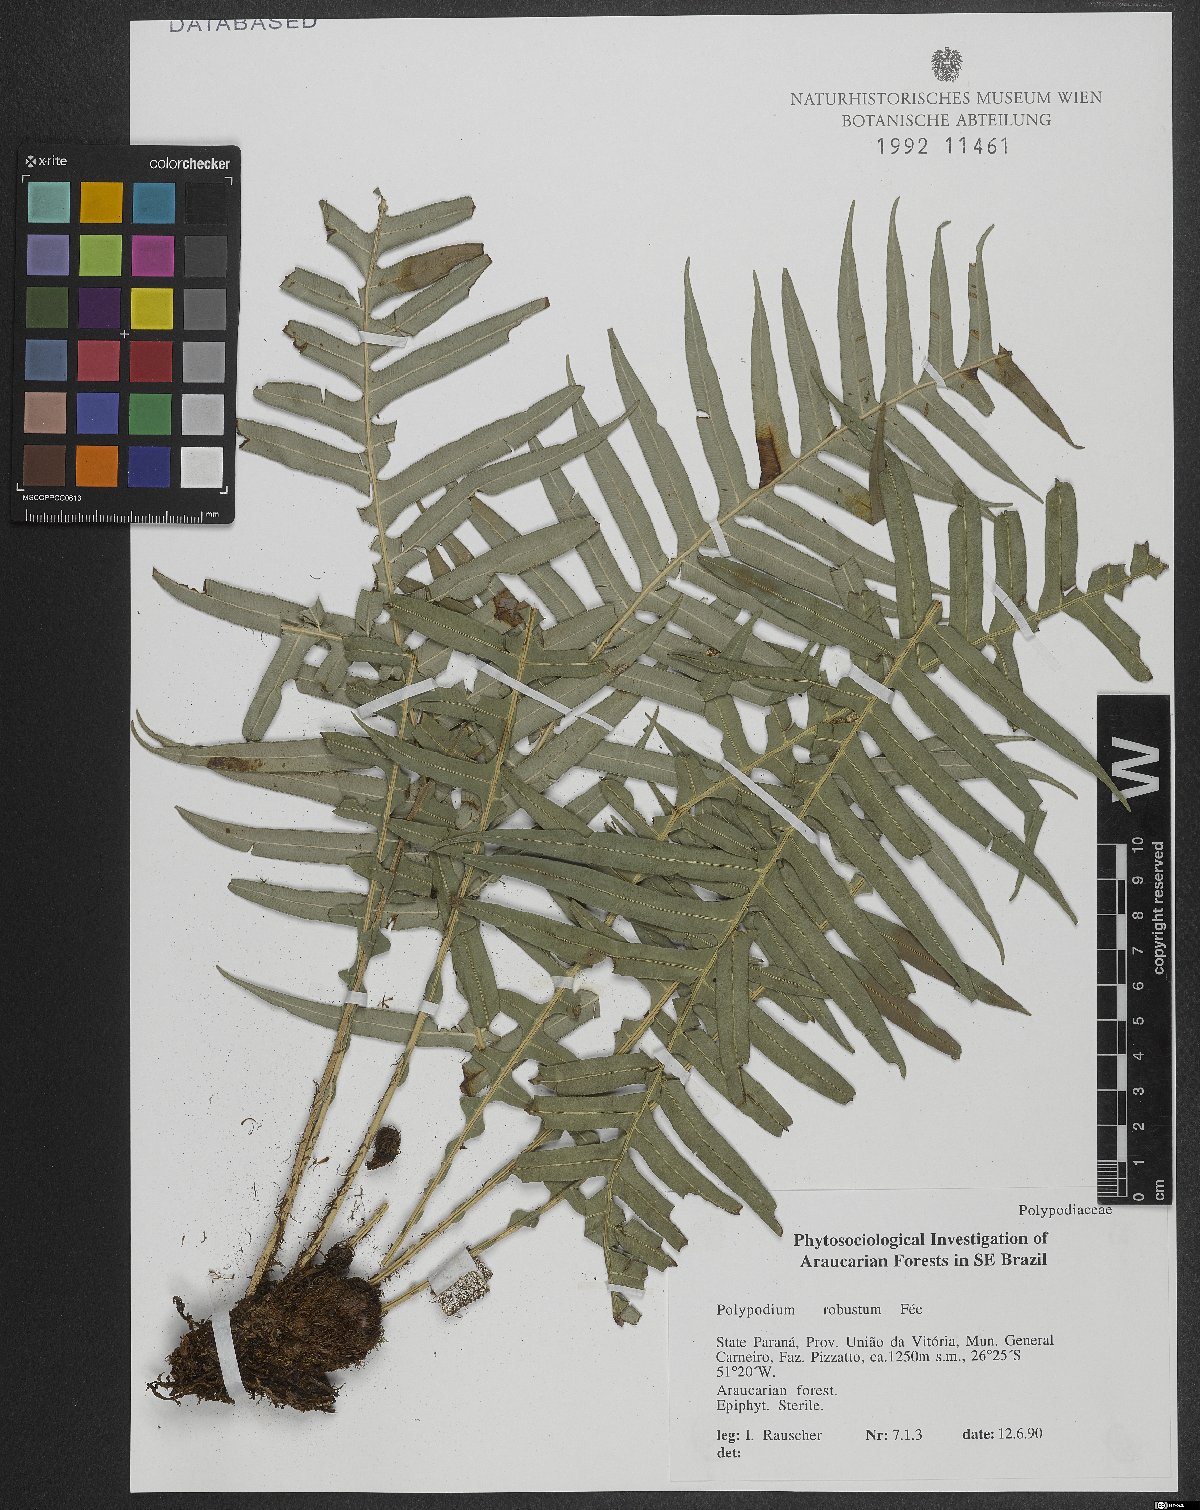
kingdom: Plantae
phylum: Tracheophyta
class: Polypodiopsida
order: Polypodiales
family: Polypodiaceae
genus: Pecluma
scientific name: Pecluma robusta
